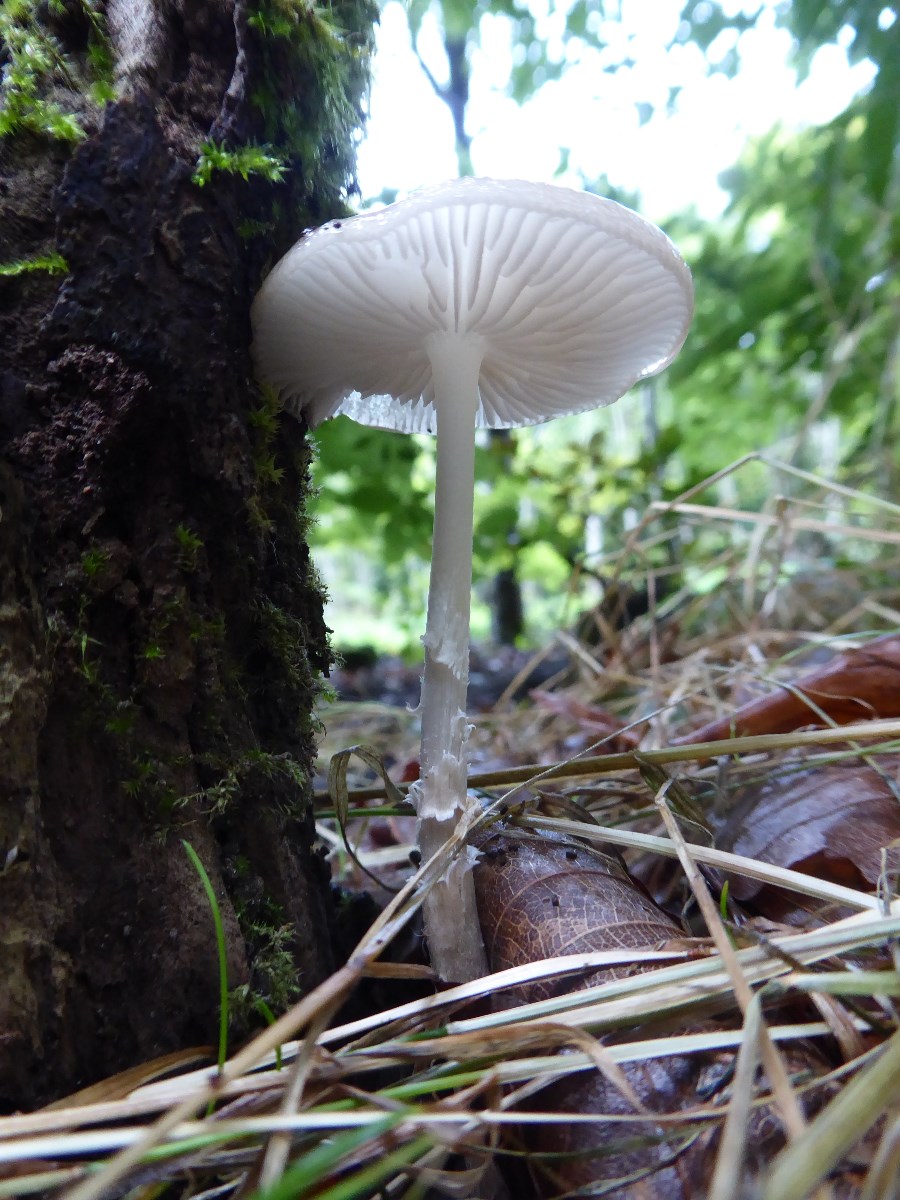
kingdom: Fungi
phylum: Basidiomycota
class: Agaricomycetes
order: Agaricales
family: Physalacriaceae
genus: Hymenopellis
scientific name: Hymenopellis radicata
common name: almindelig pælerodshat
